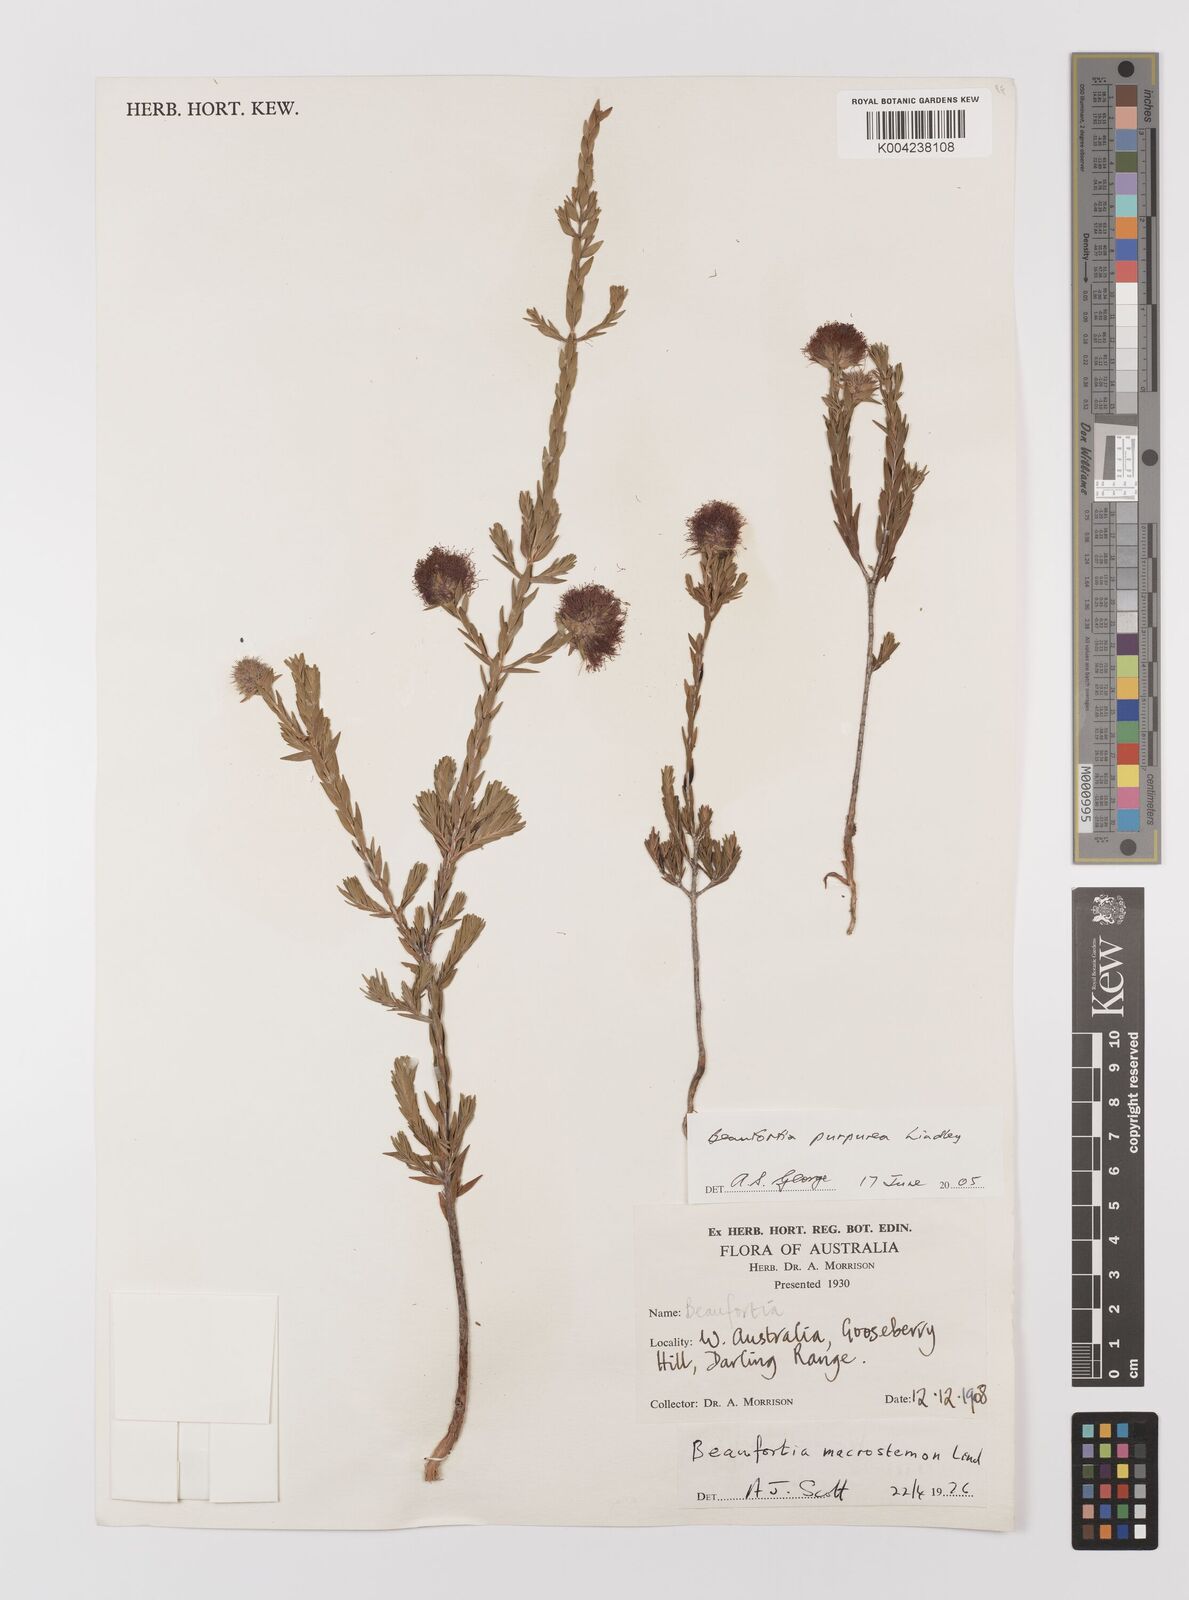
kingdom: Plantae
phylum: Tracheophyta
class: Magnoliopsida
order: Myrtales
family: Myrtaceae
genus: Melaleuca
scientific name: Melaleuca purpurea
